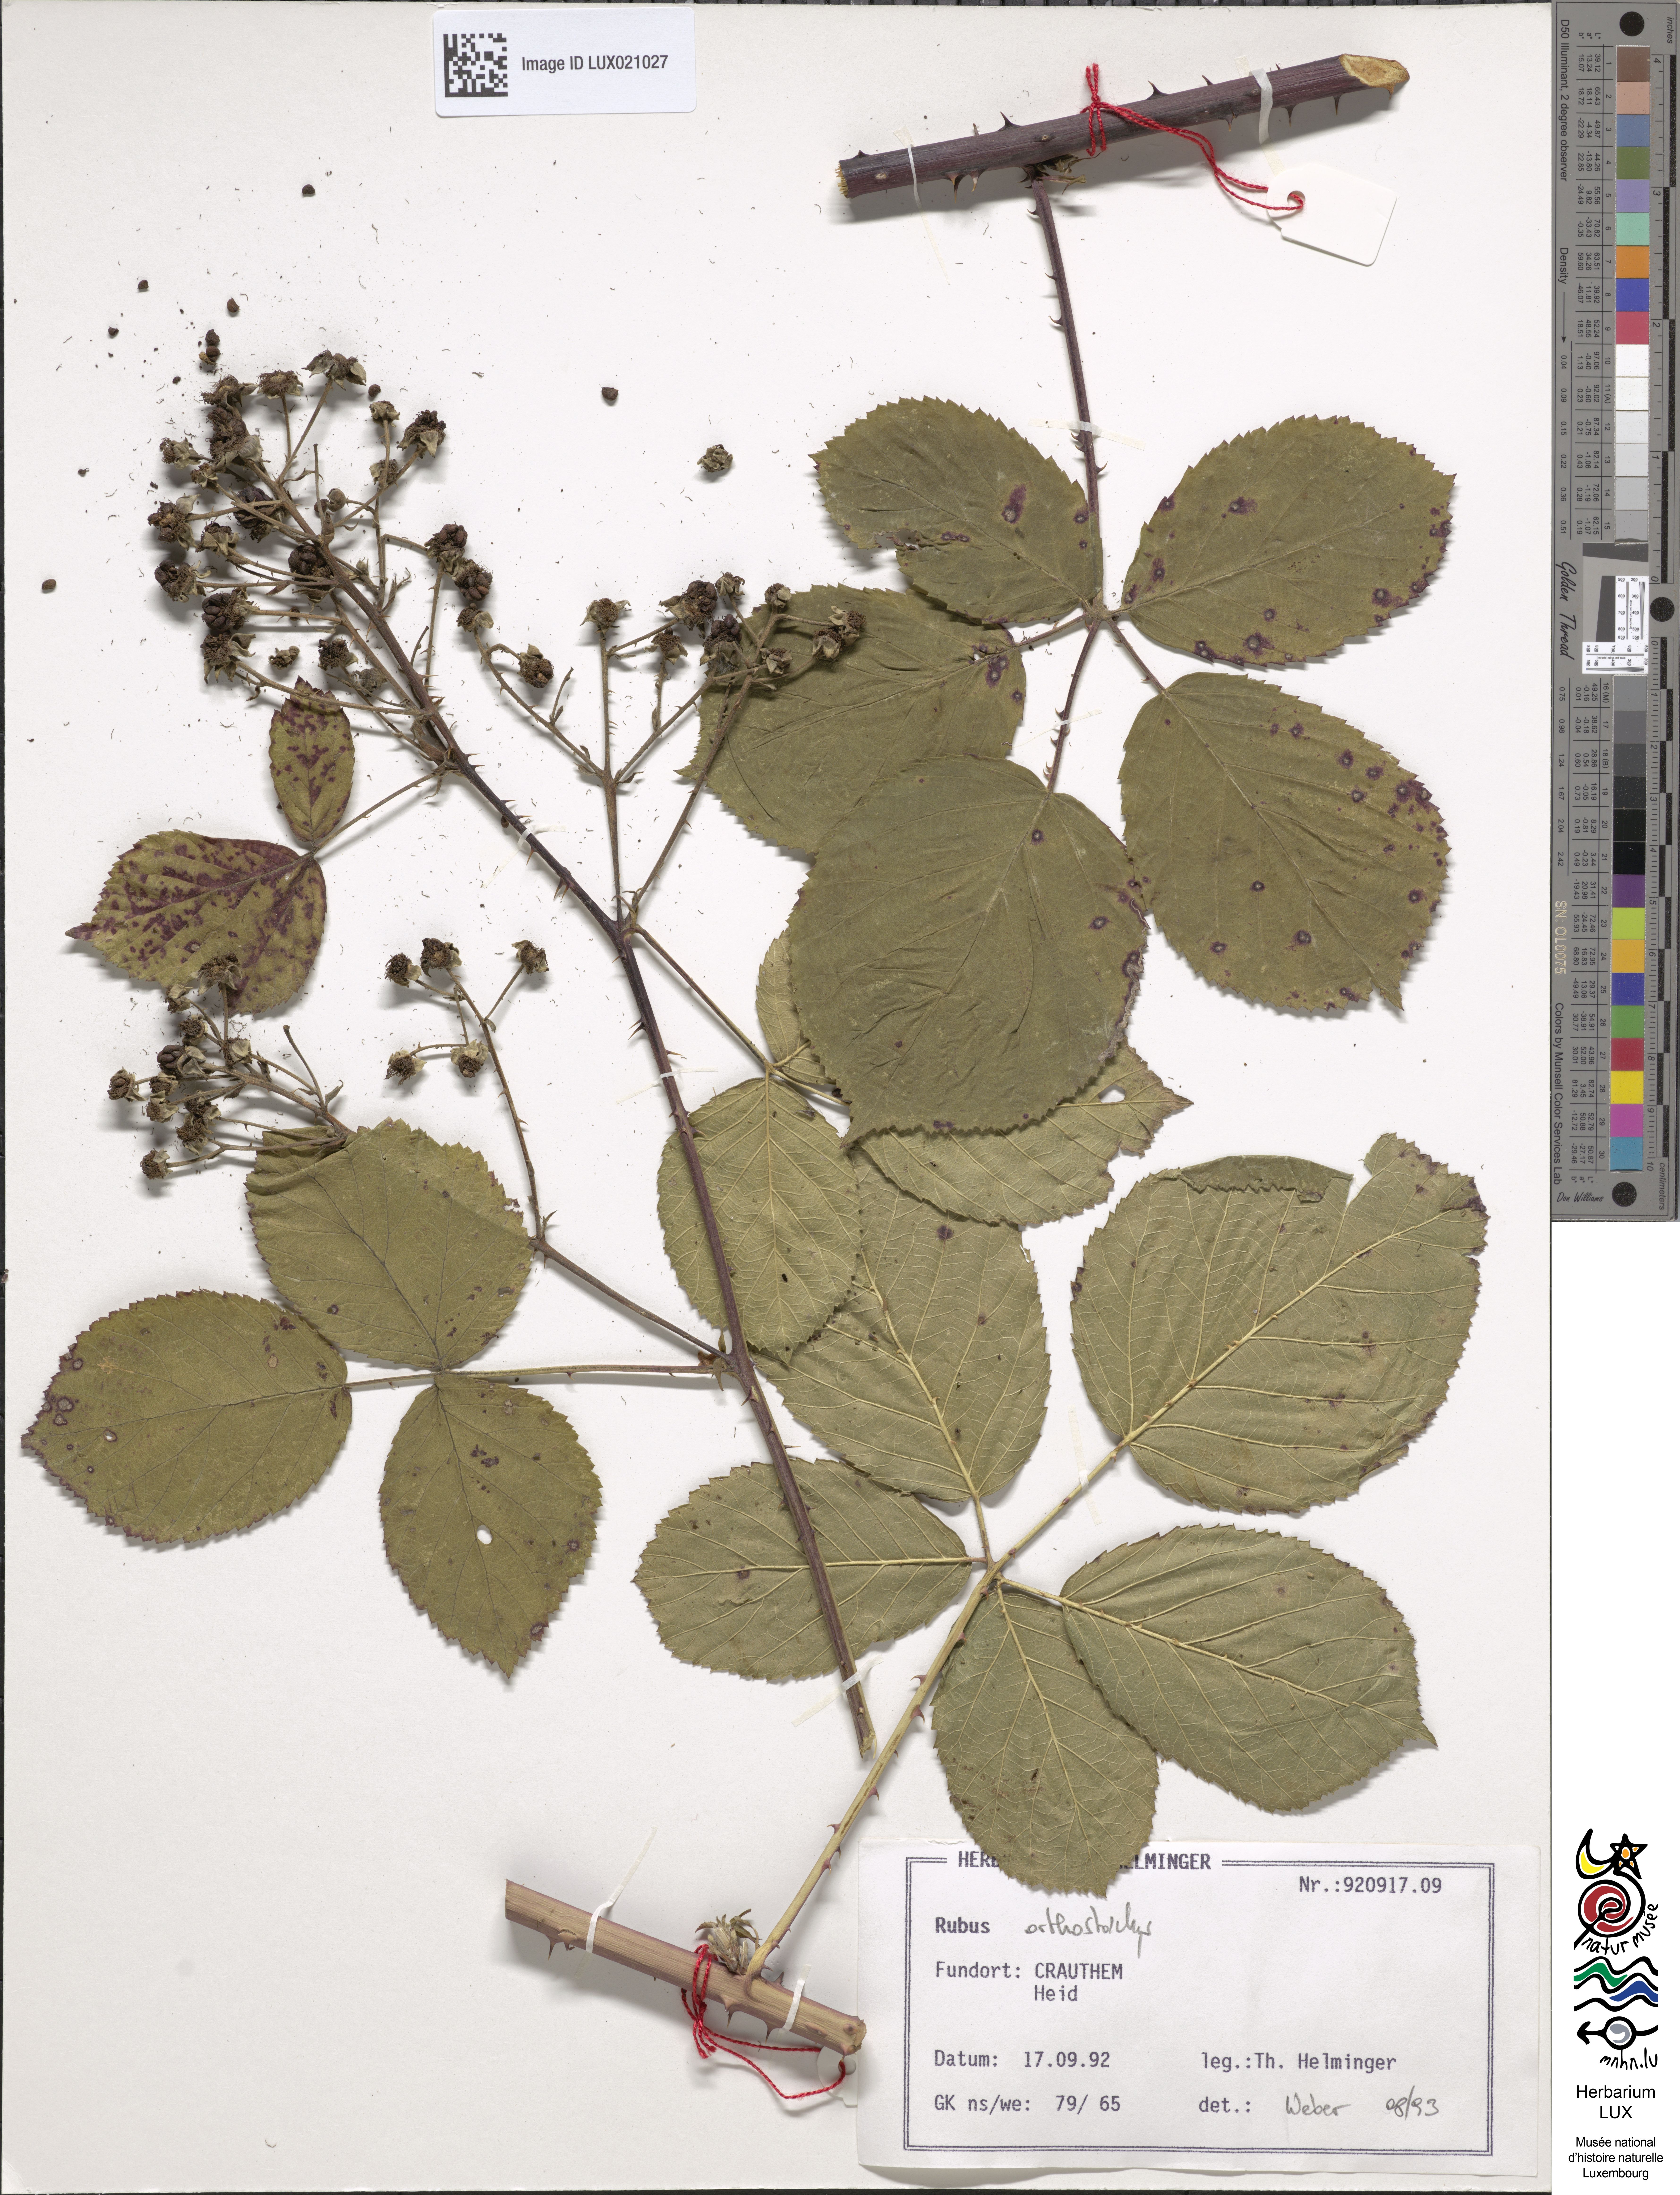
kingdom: Plantae
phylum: Tracheophyta
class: Magnoliopsida
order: Rosales
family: Rosaceae
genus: Rubus
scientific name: Rubus orthostachys
